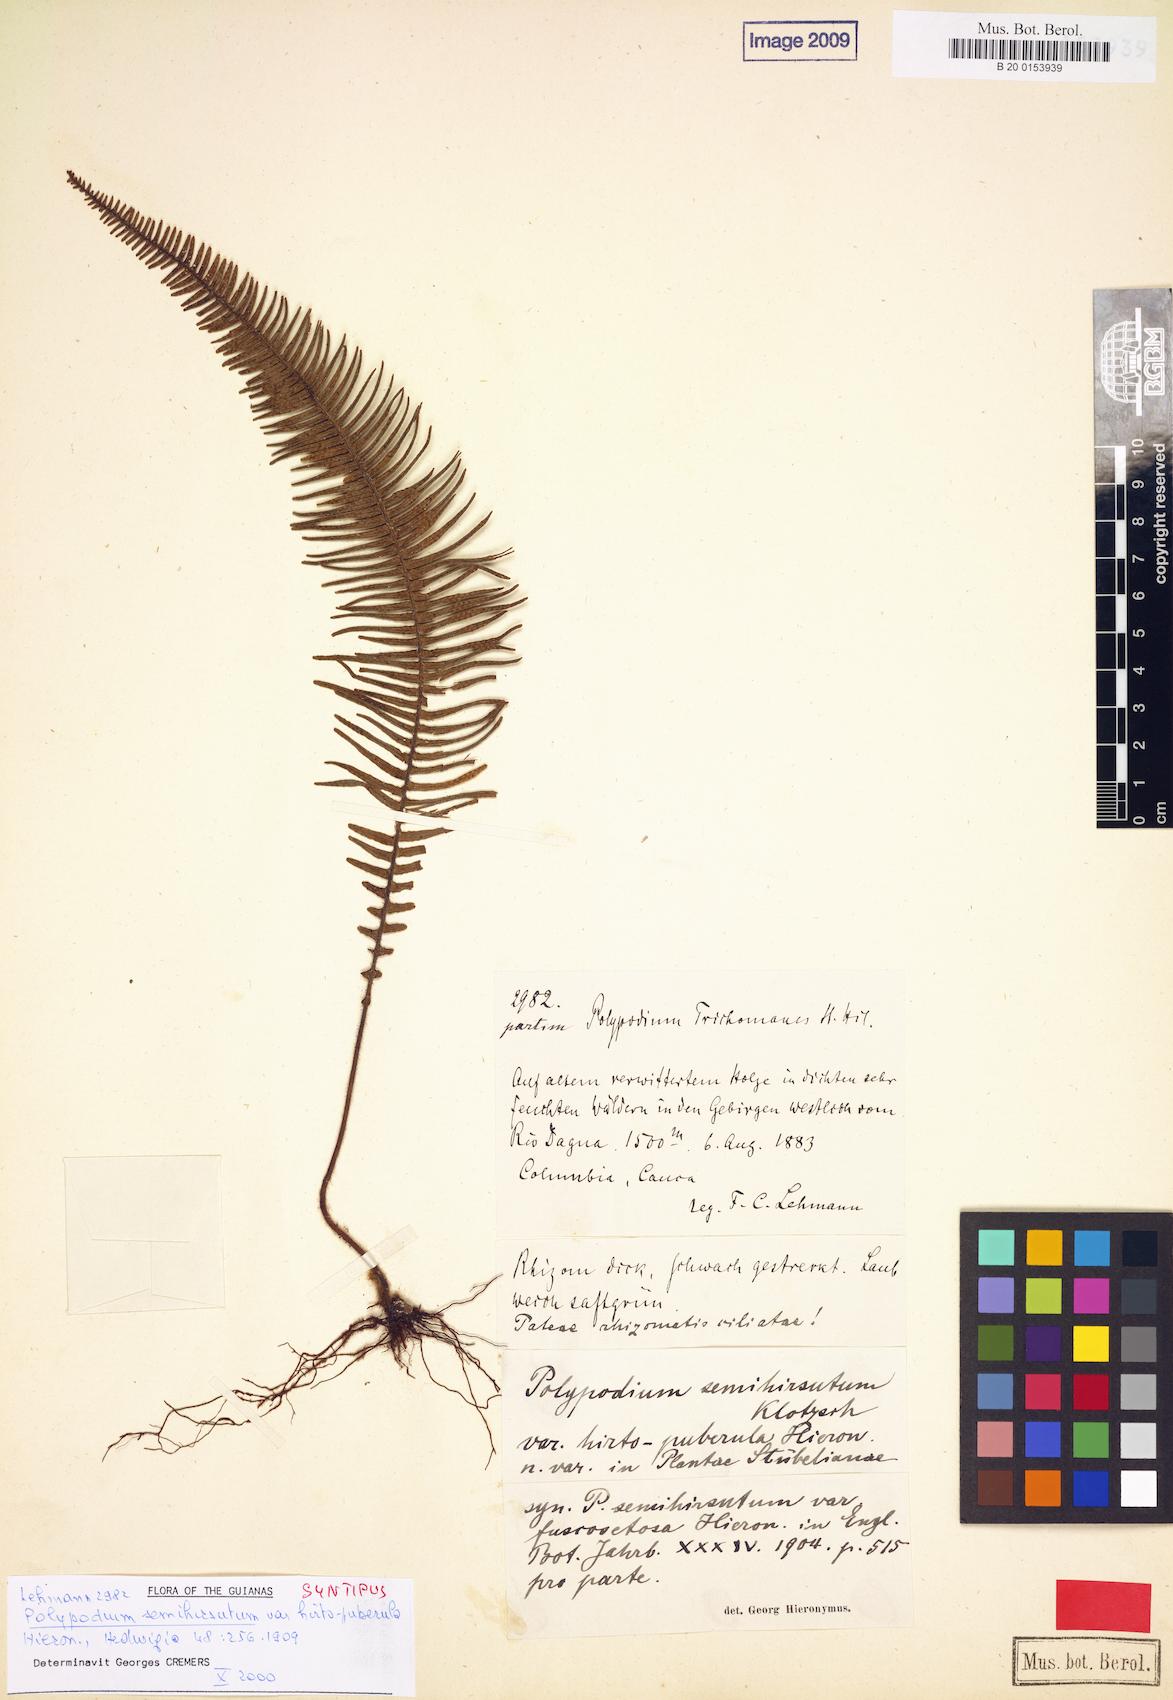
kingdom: Plantae
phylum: Tracheophyta
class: Polypodiopsida
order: Polypodiales
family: Polypodiaceae
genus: Mycopteris
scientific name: Mycopteris alsopteris
